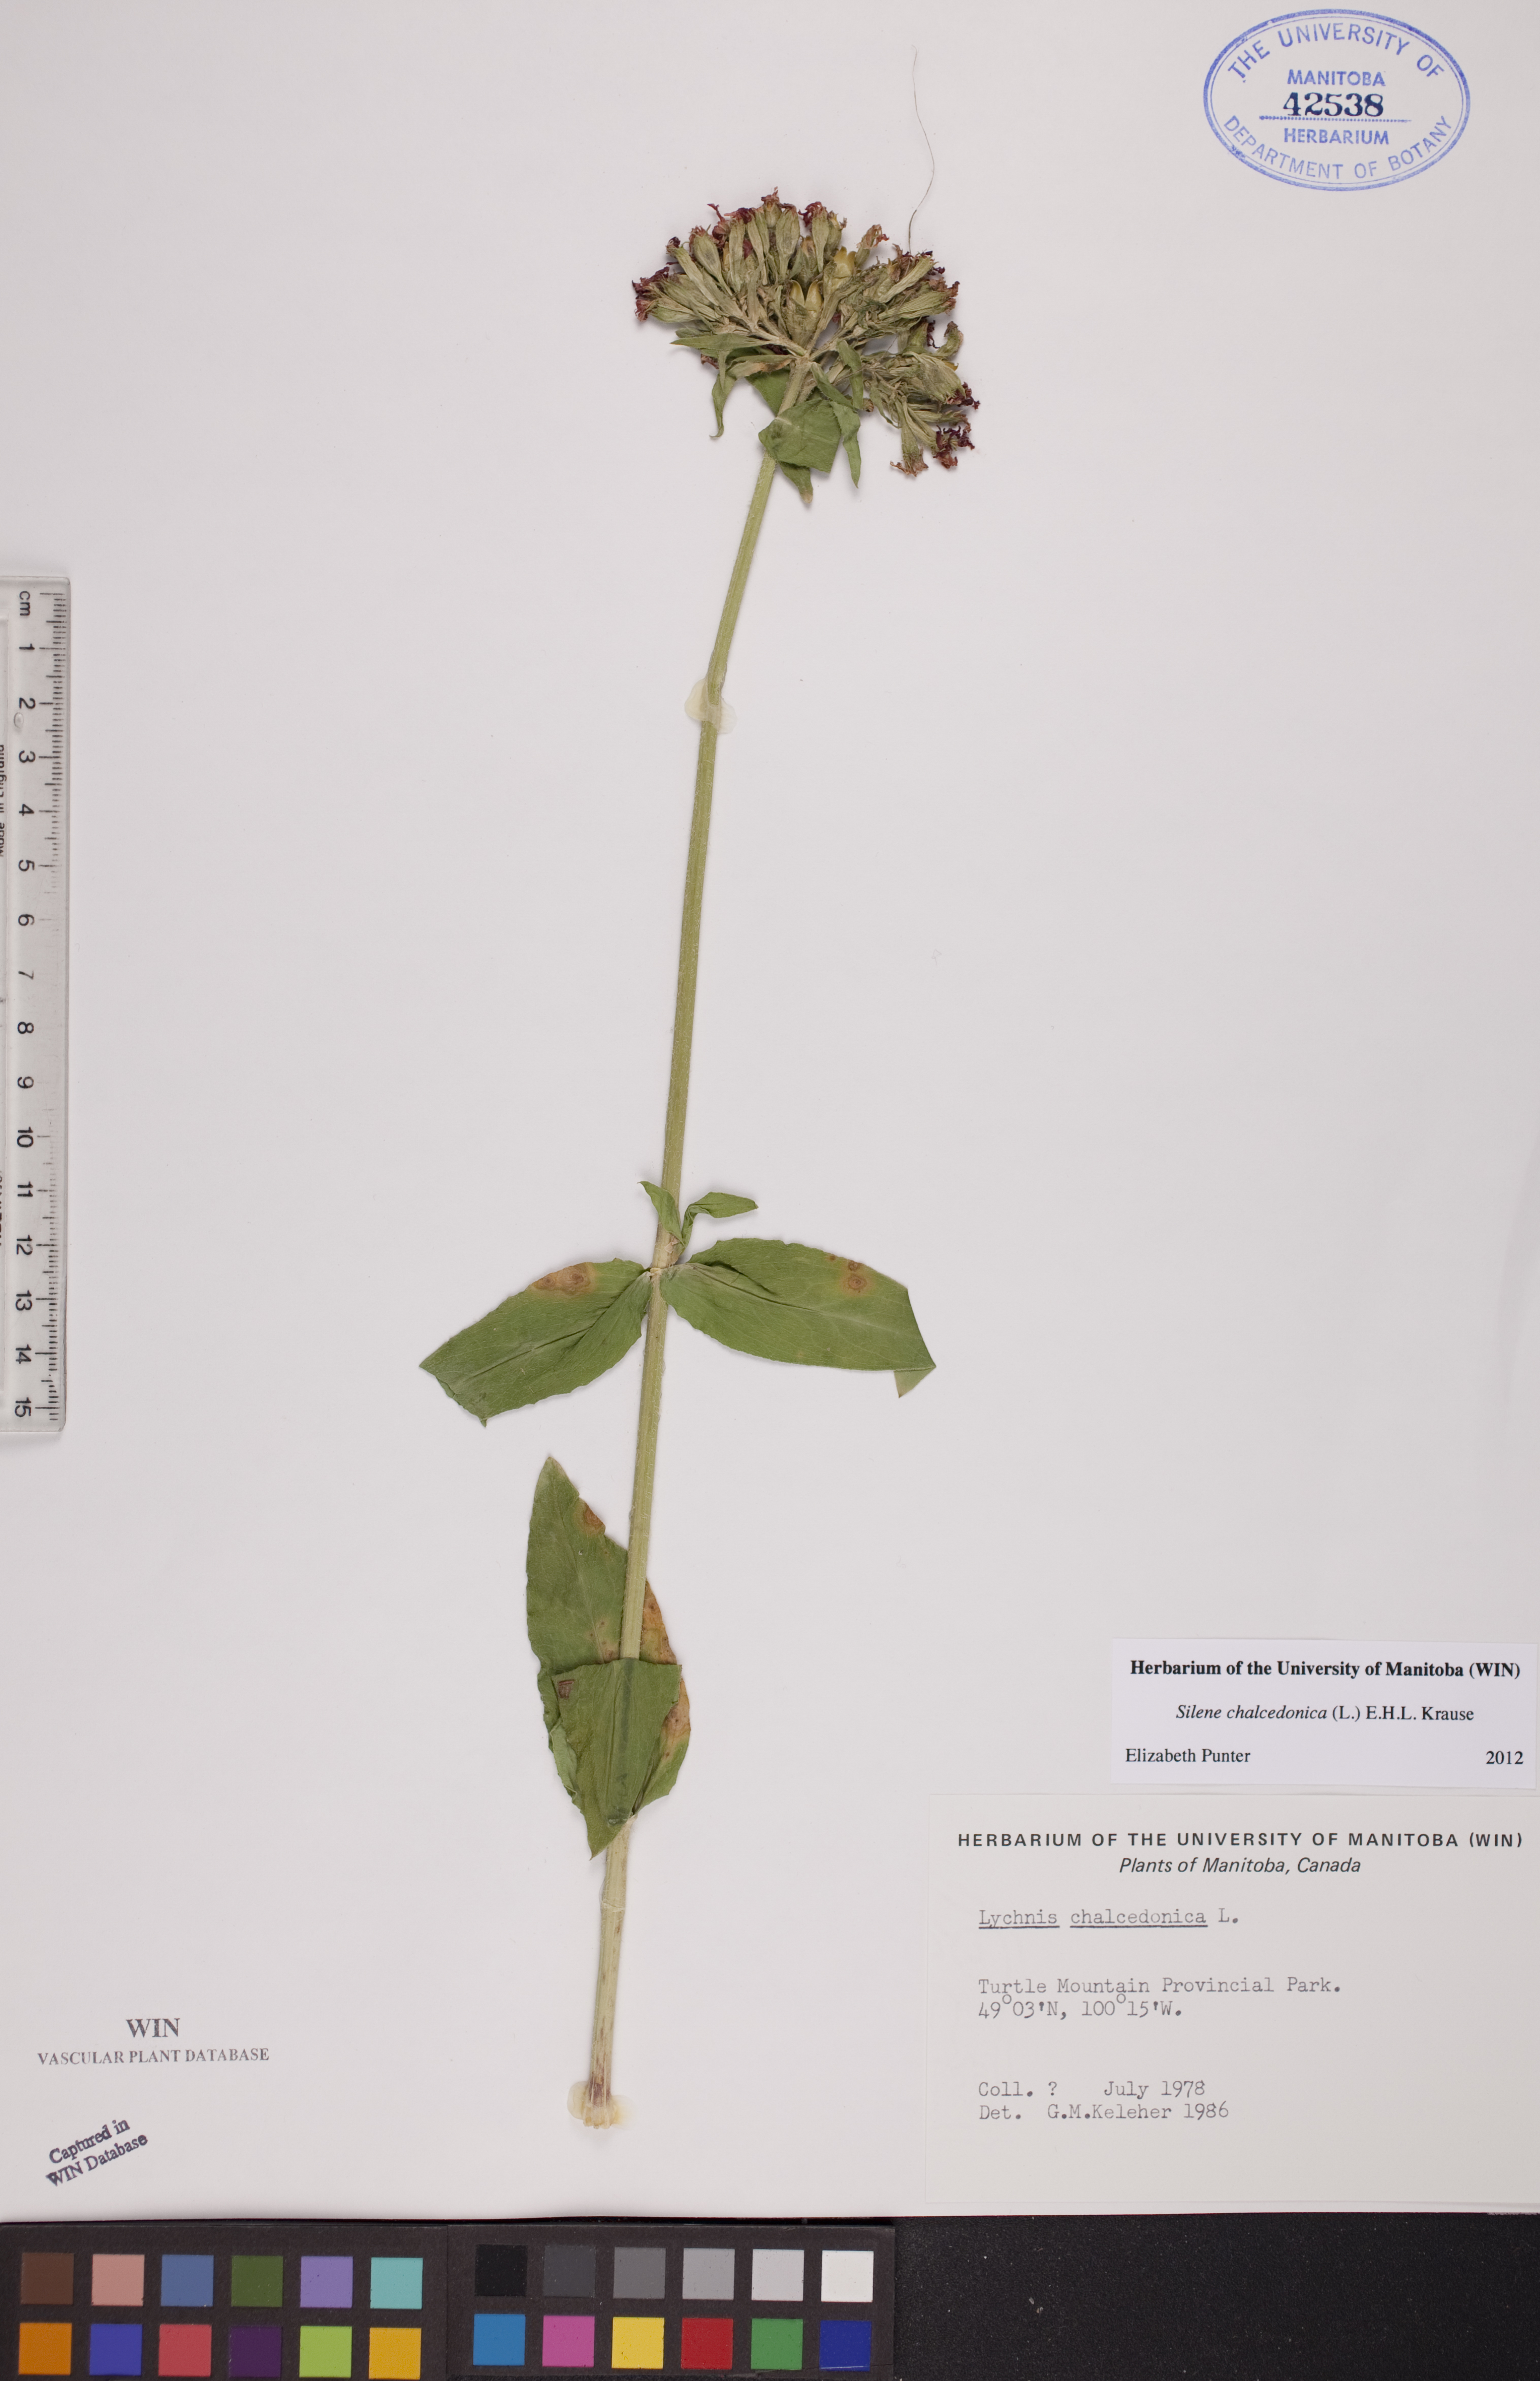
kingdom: Plantae
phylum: Tracheophyta
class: Magnoliopsida
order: Caryophyllales
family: Caryophyllaceae
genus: Silene
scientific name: Silene chalcedonica
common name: Maltese-cross
